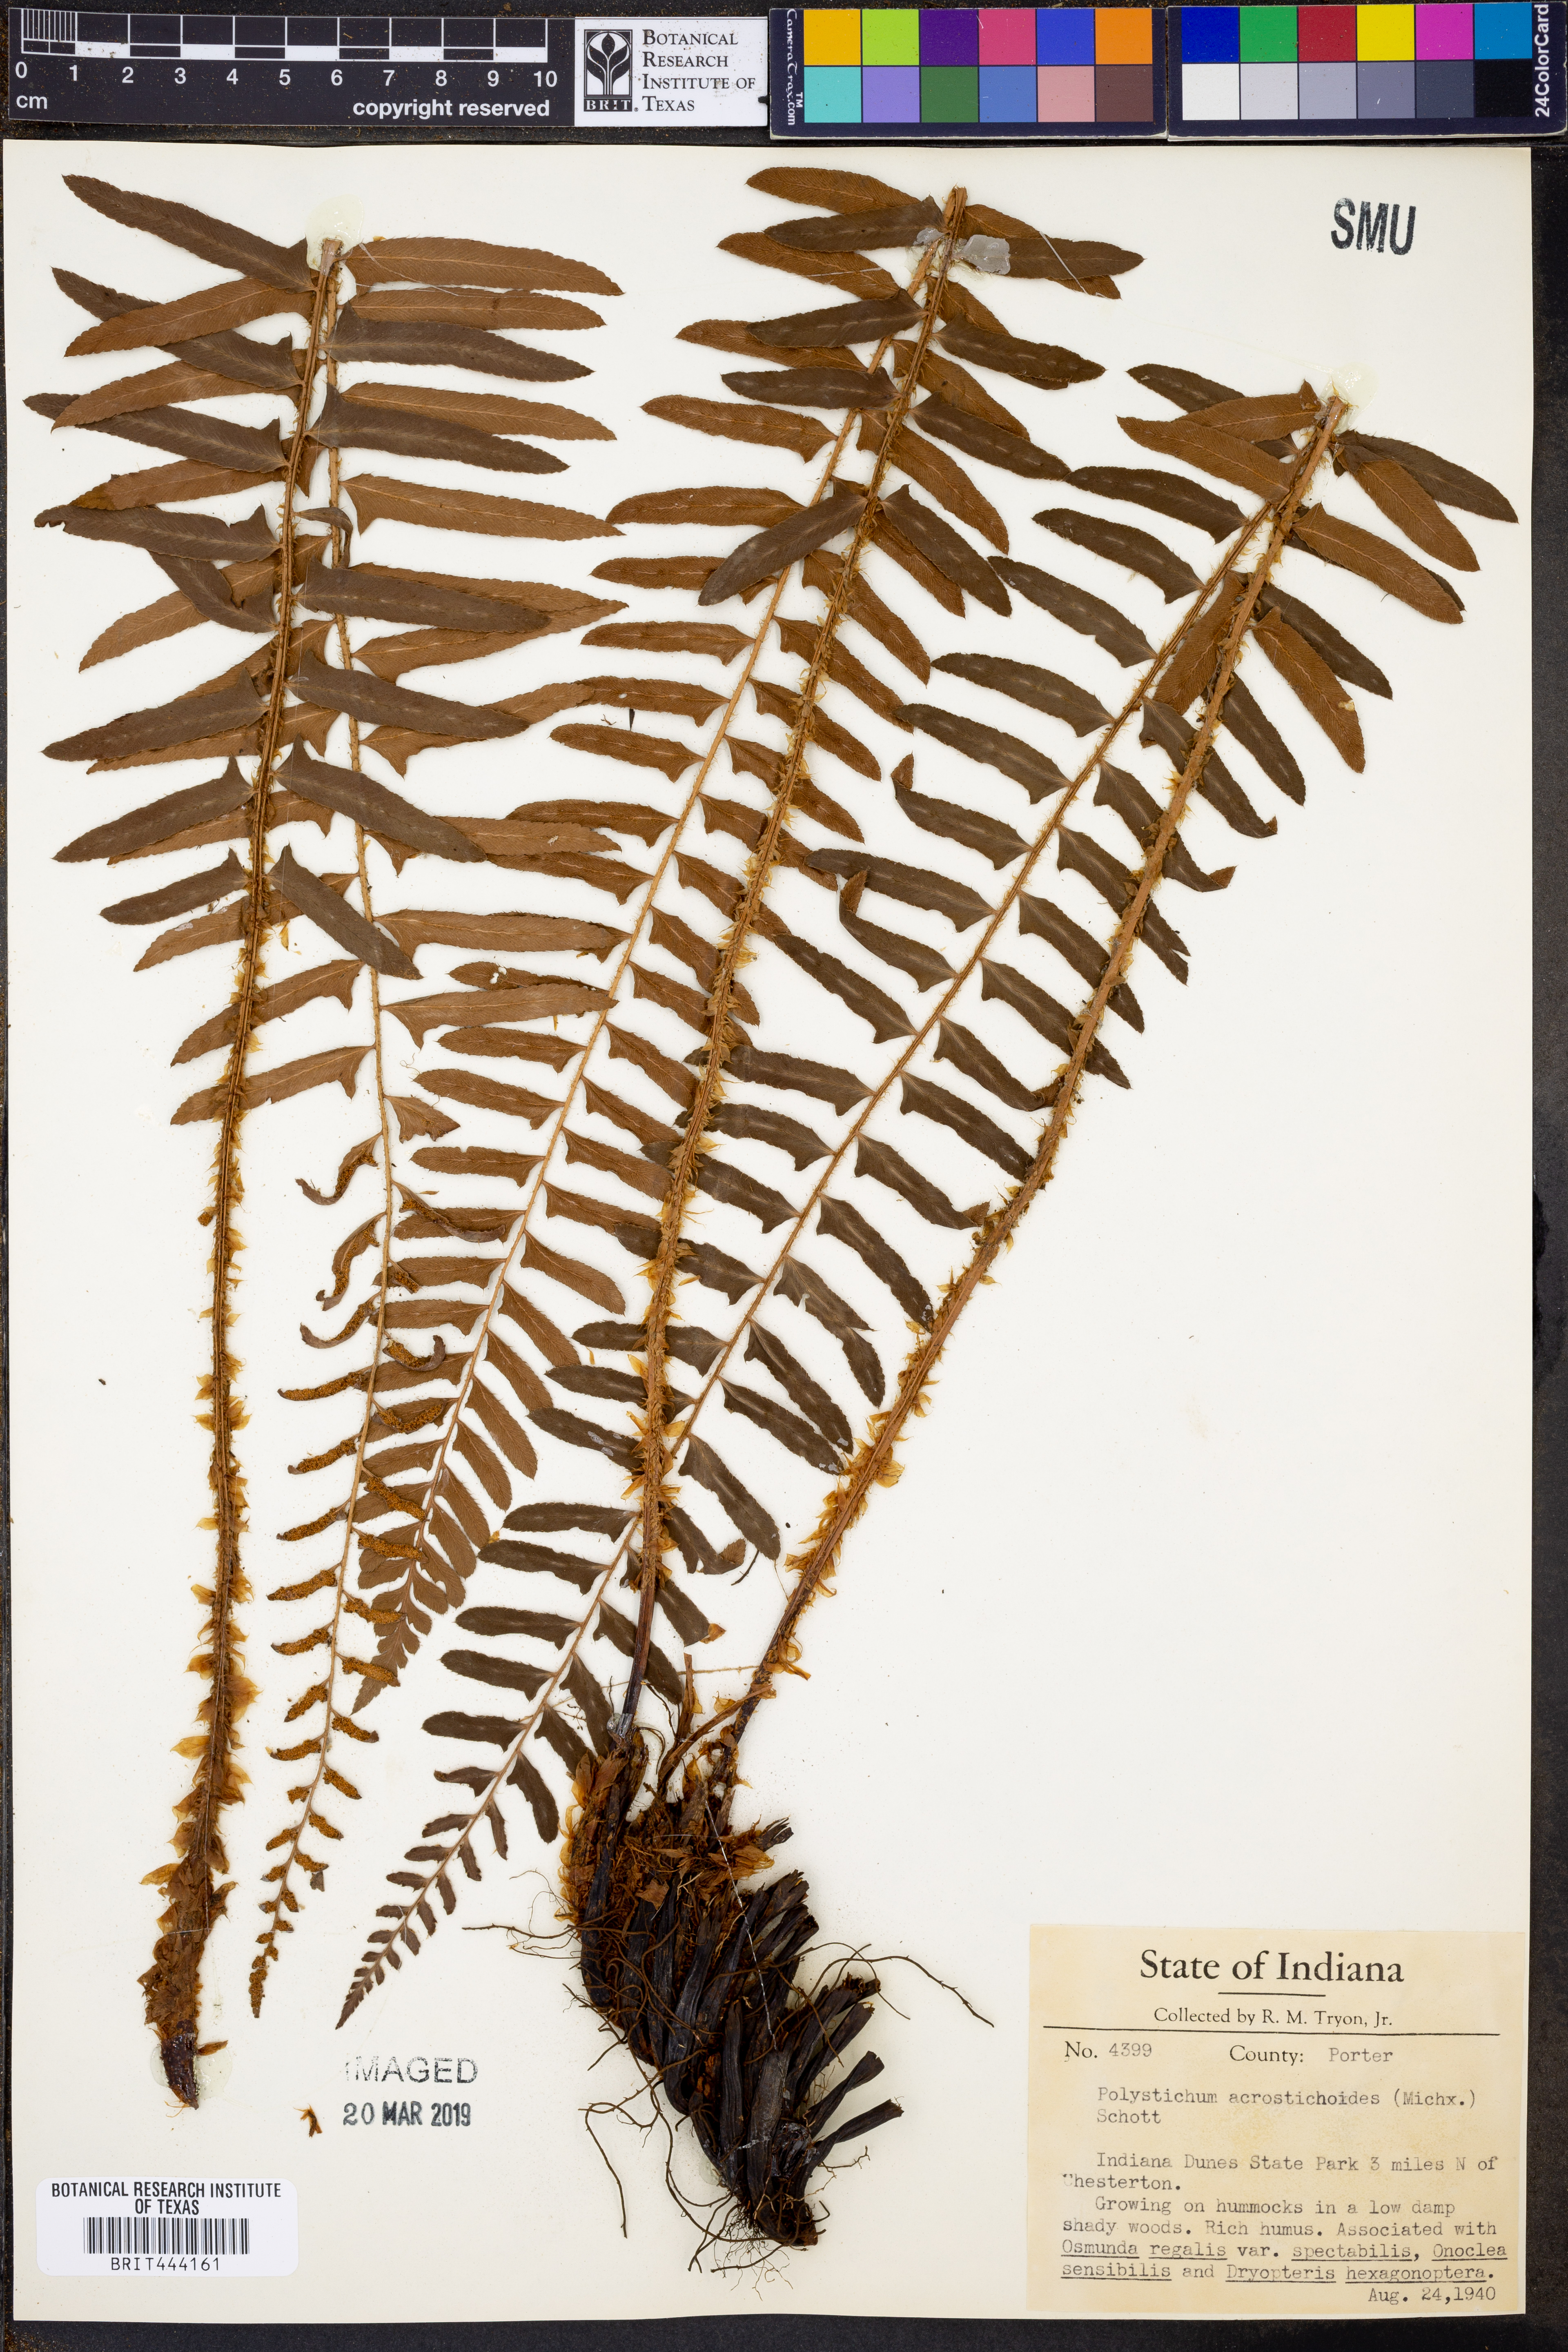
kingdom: Plantae
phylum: Tracheophyta
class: Polypodiopsida
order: Polypodiales
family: Dryopteridaceae
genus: Polystichum
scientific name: Polystichum acrostichoides
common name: Christmas fern
